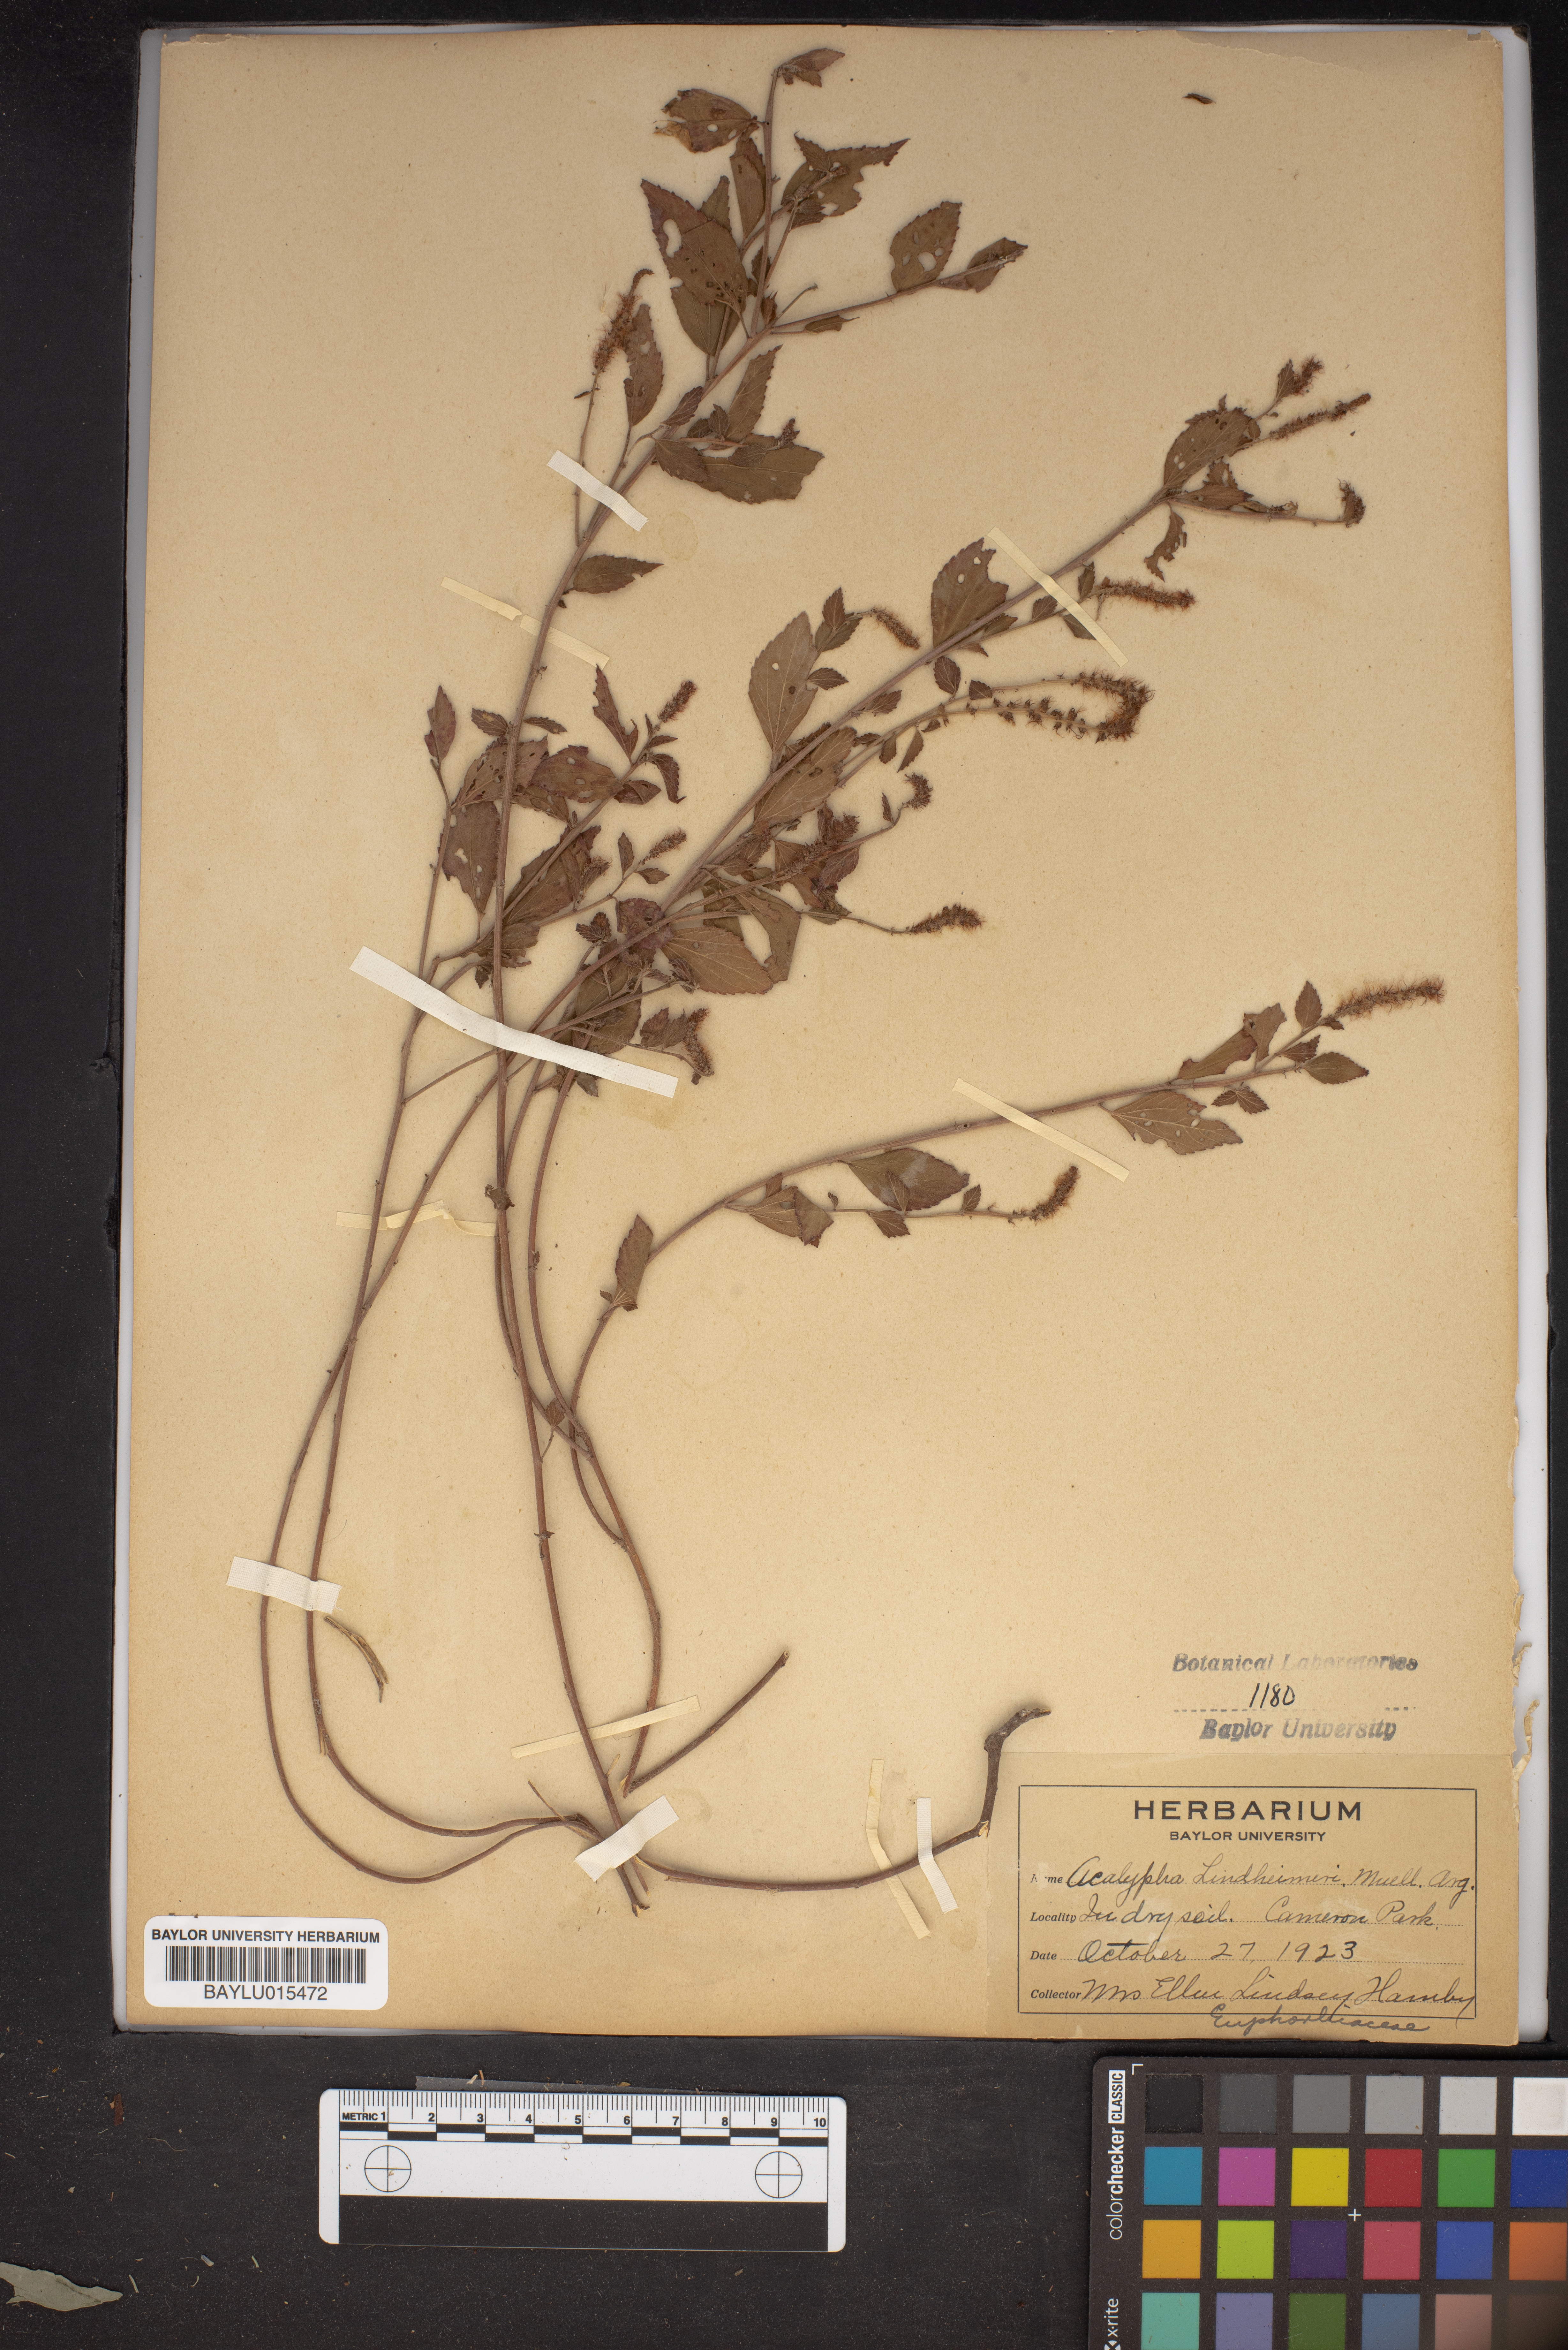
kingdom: Plantae
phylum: Tracheophyta
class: Magnoliopsida
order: Malpighiales
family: Euphorbiaceae
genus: Acalypha
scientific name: Acalypha phleoides
